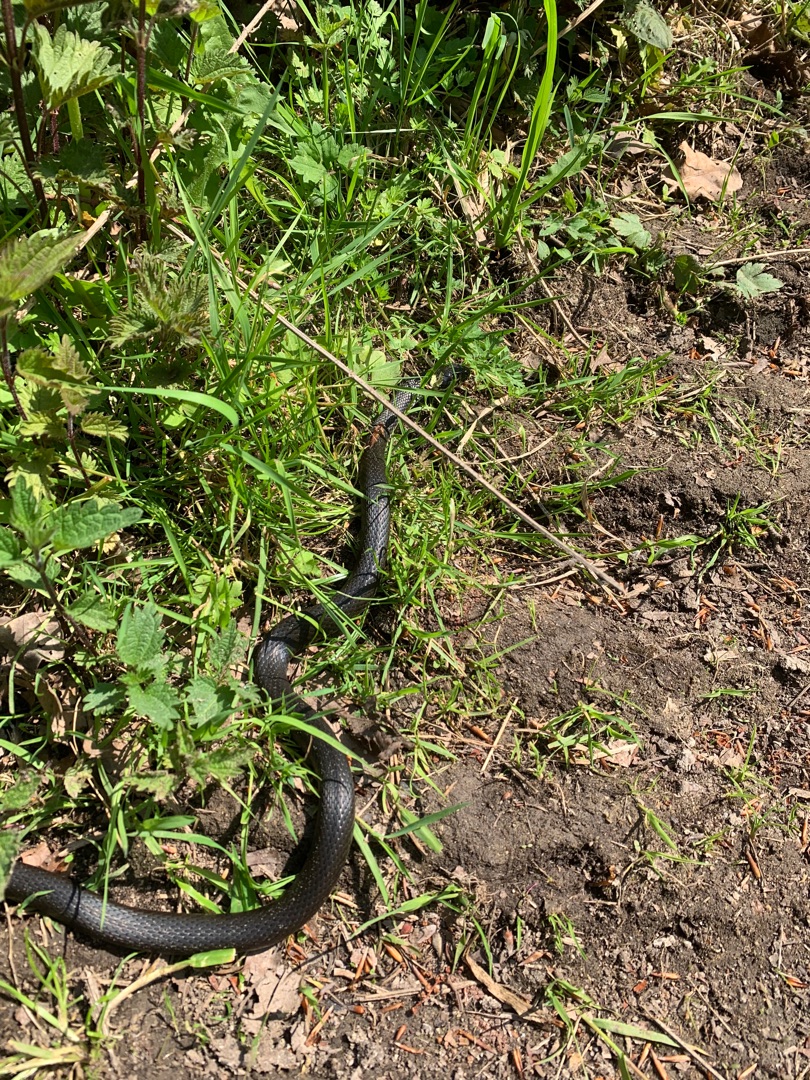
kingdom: Animalia
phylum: Chordata
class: Squamata
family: Colubridae
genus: Natrix
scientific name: Natrix natrix
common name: Snog
